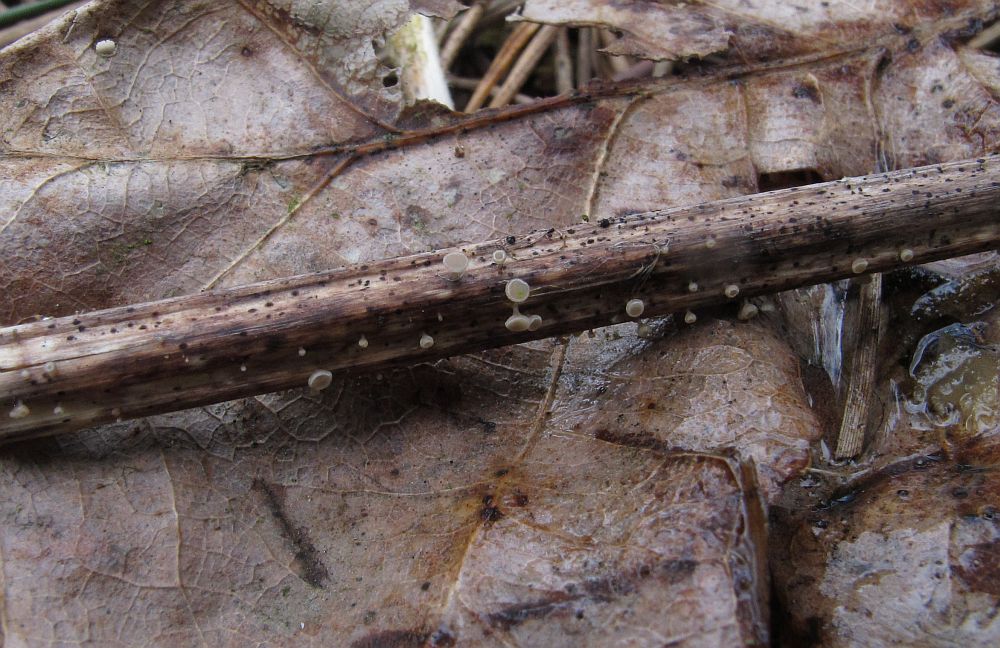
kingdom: Fungi
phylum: Ascomycota
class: Leotiomycetes
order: Helotiales
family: Helotiaceae
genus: Cyathicula
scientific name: Cyathicula cyathoidea
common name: pokal-stilkskive
